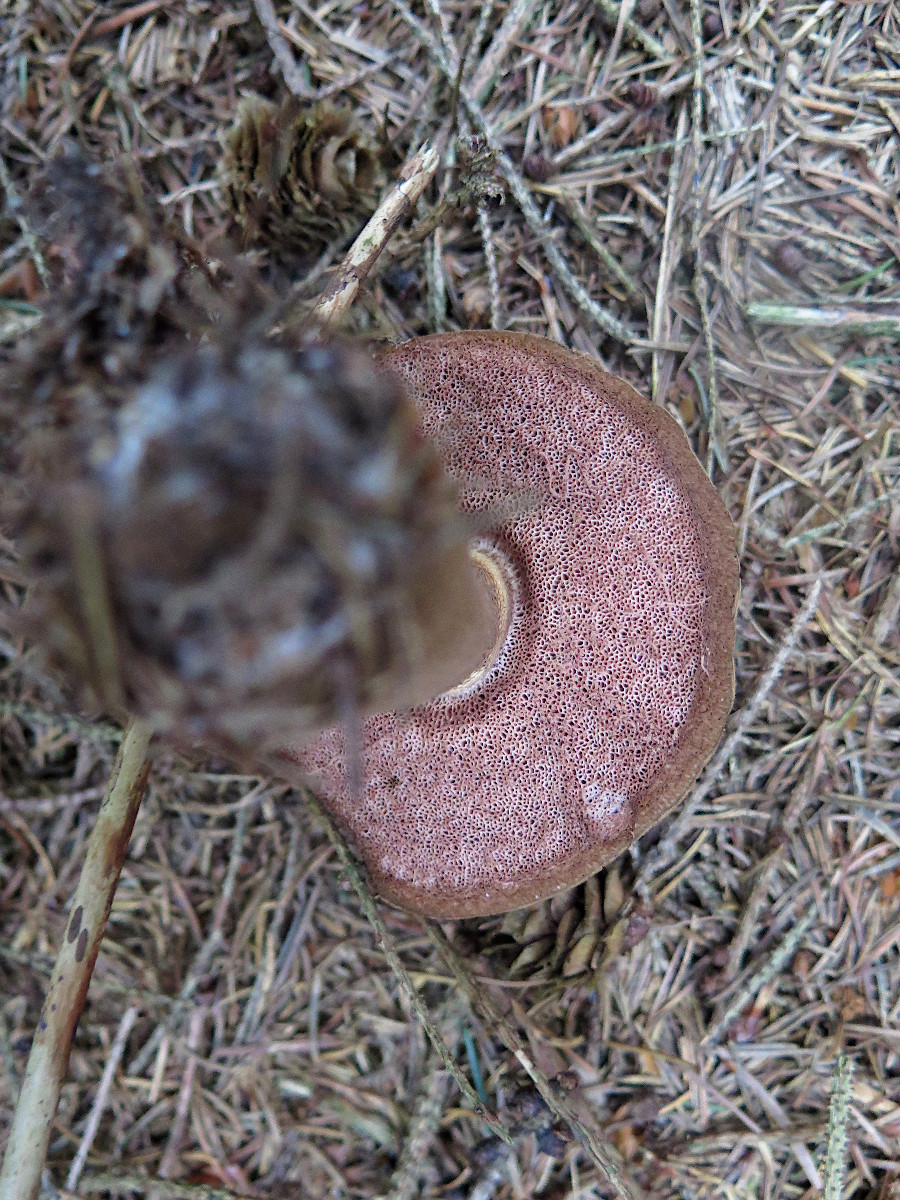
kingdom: Fungi
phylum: Basidiomycota
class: Agaricomycetes
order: Boletales
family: Boletaceae
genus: Tylopilus
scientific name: Tylopilus felleus
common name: galderørhat
